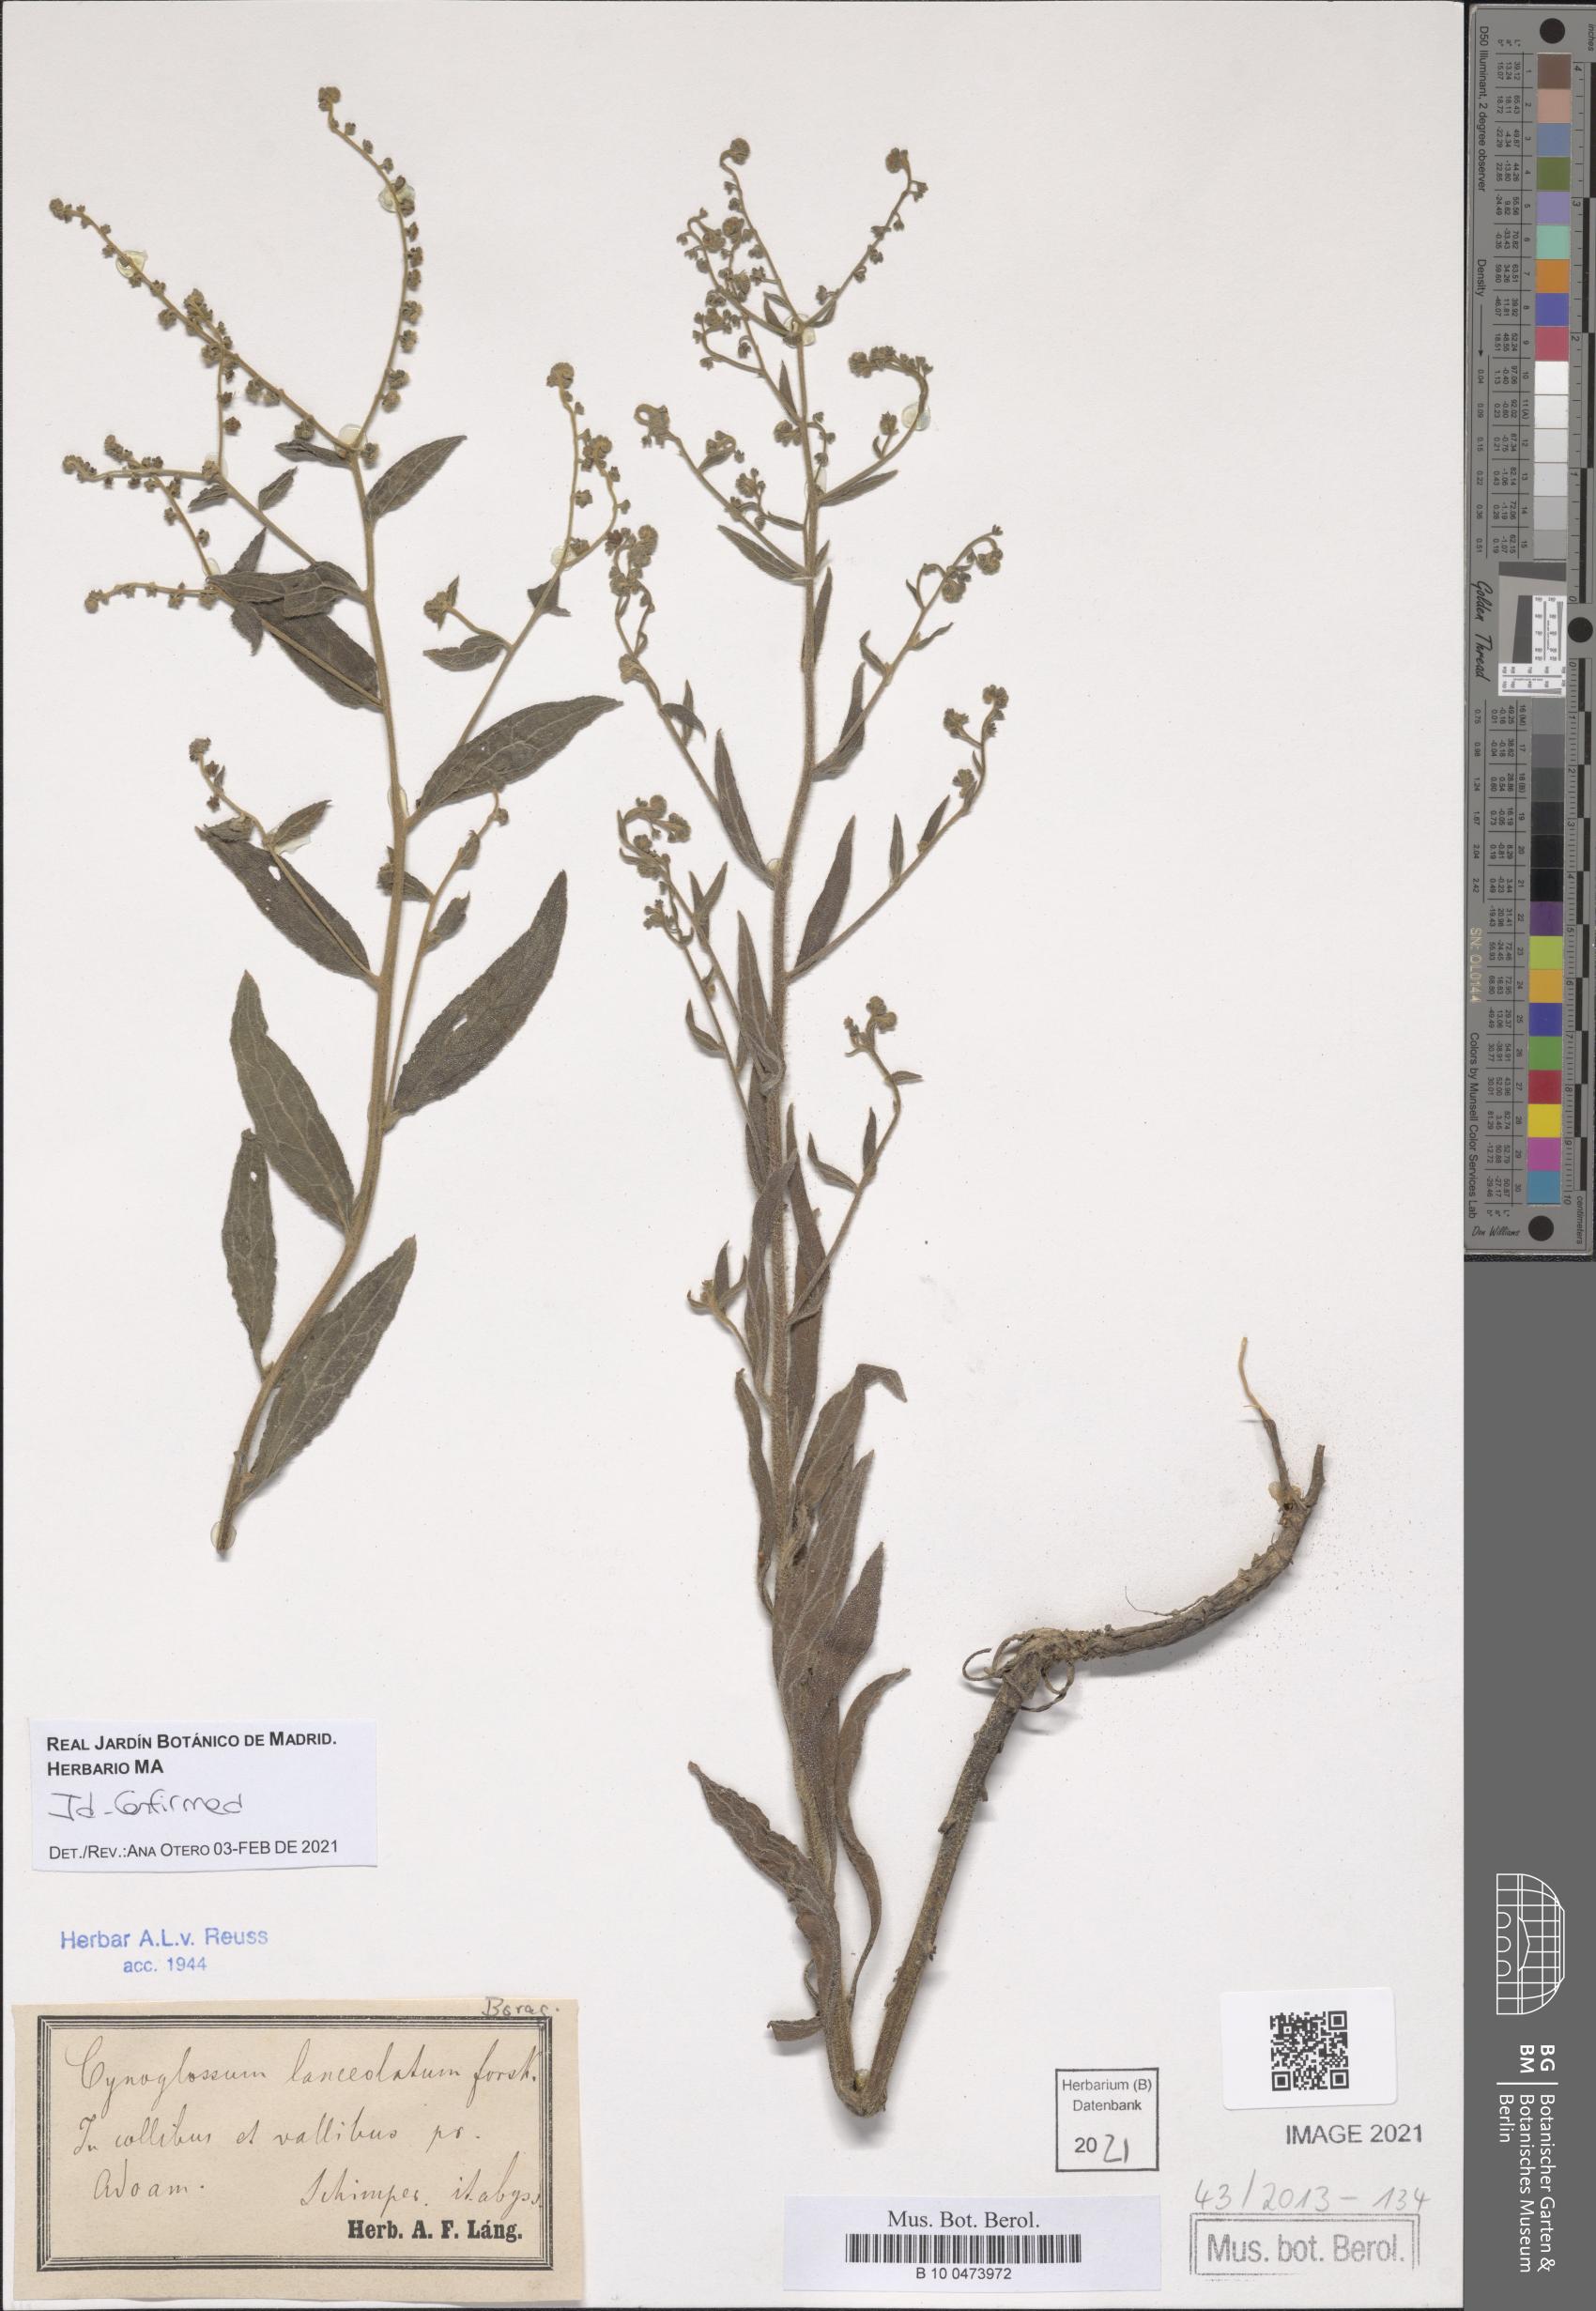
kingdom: Plantae
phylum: Tracheophyta
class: Magnoliopsida
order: Boraginales
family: Boraginaceae
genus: Paracynoglossum
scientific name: Paracynoglossum lanceolatum
